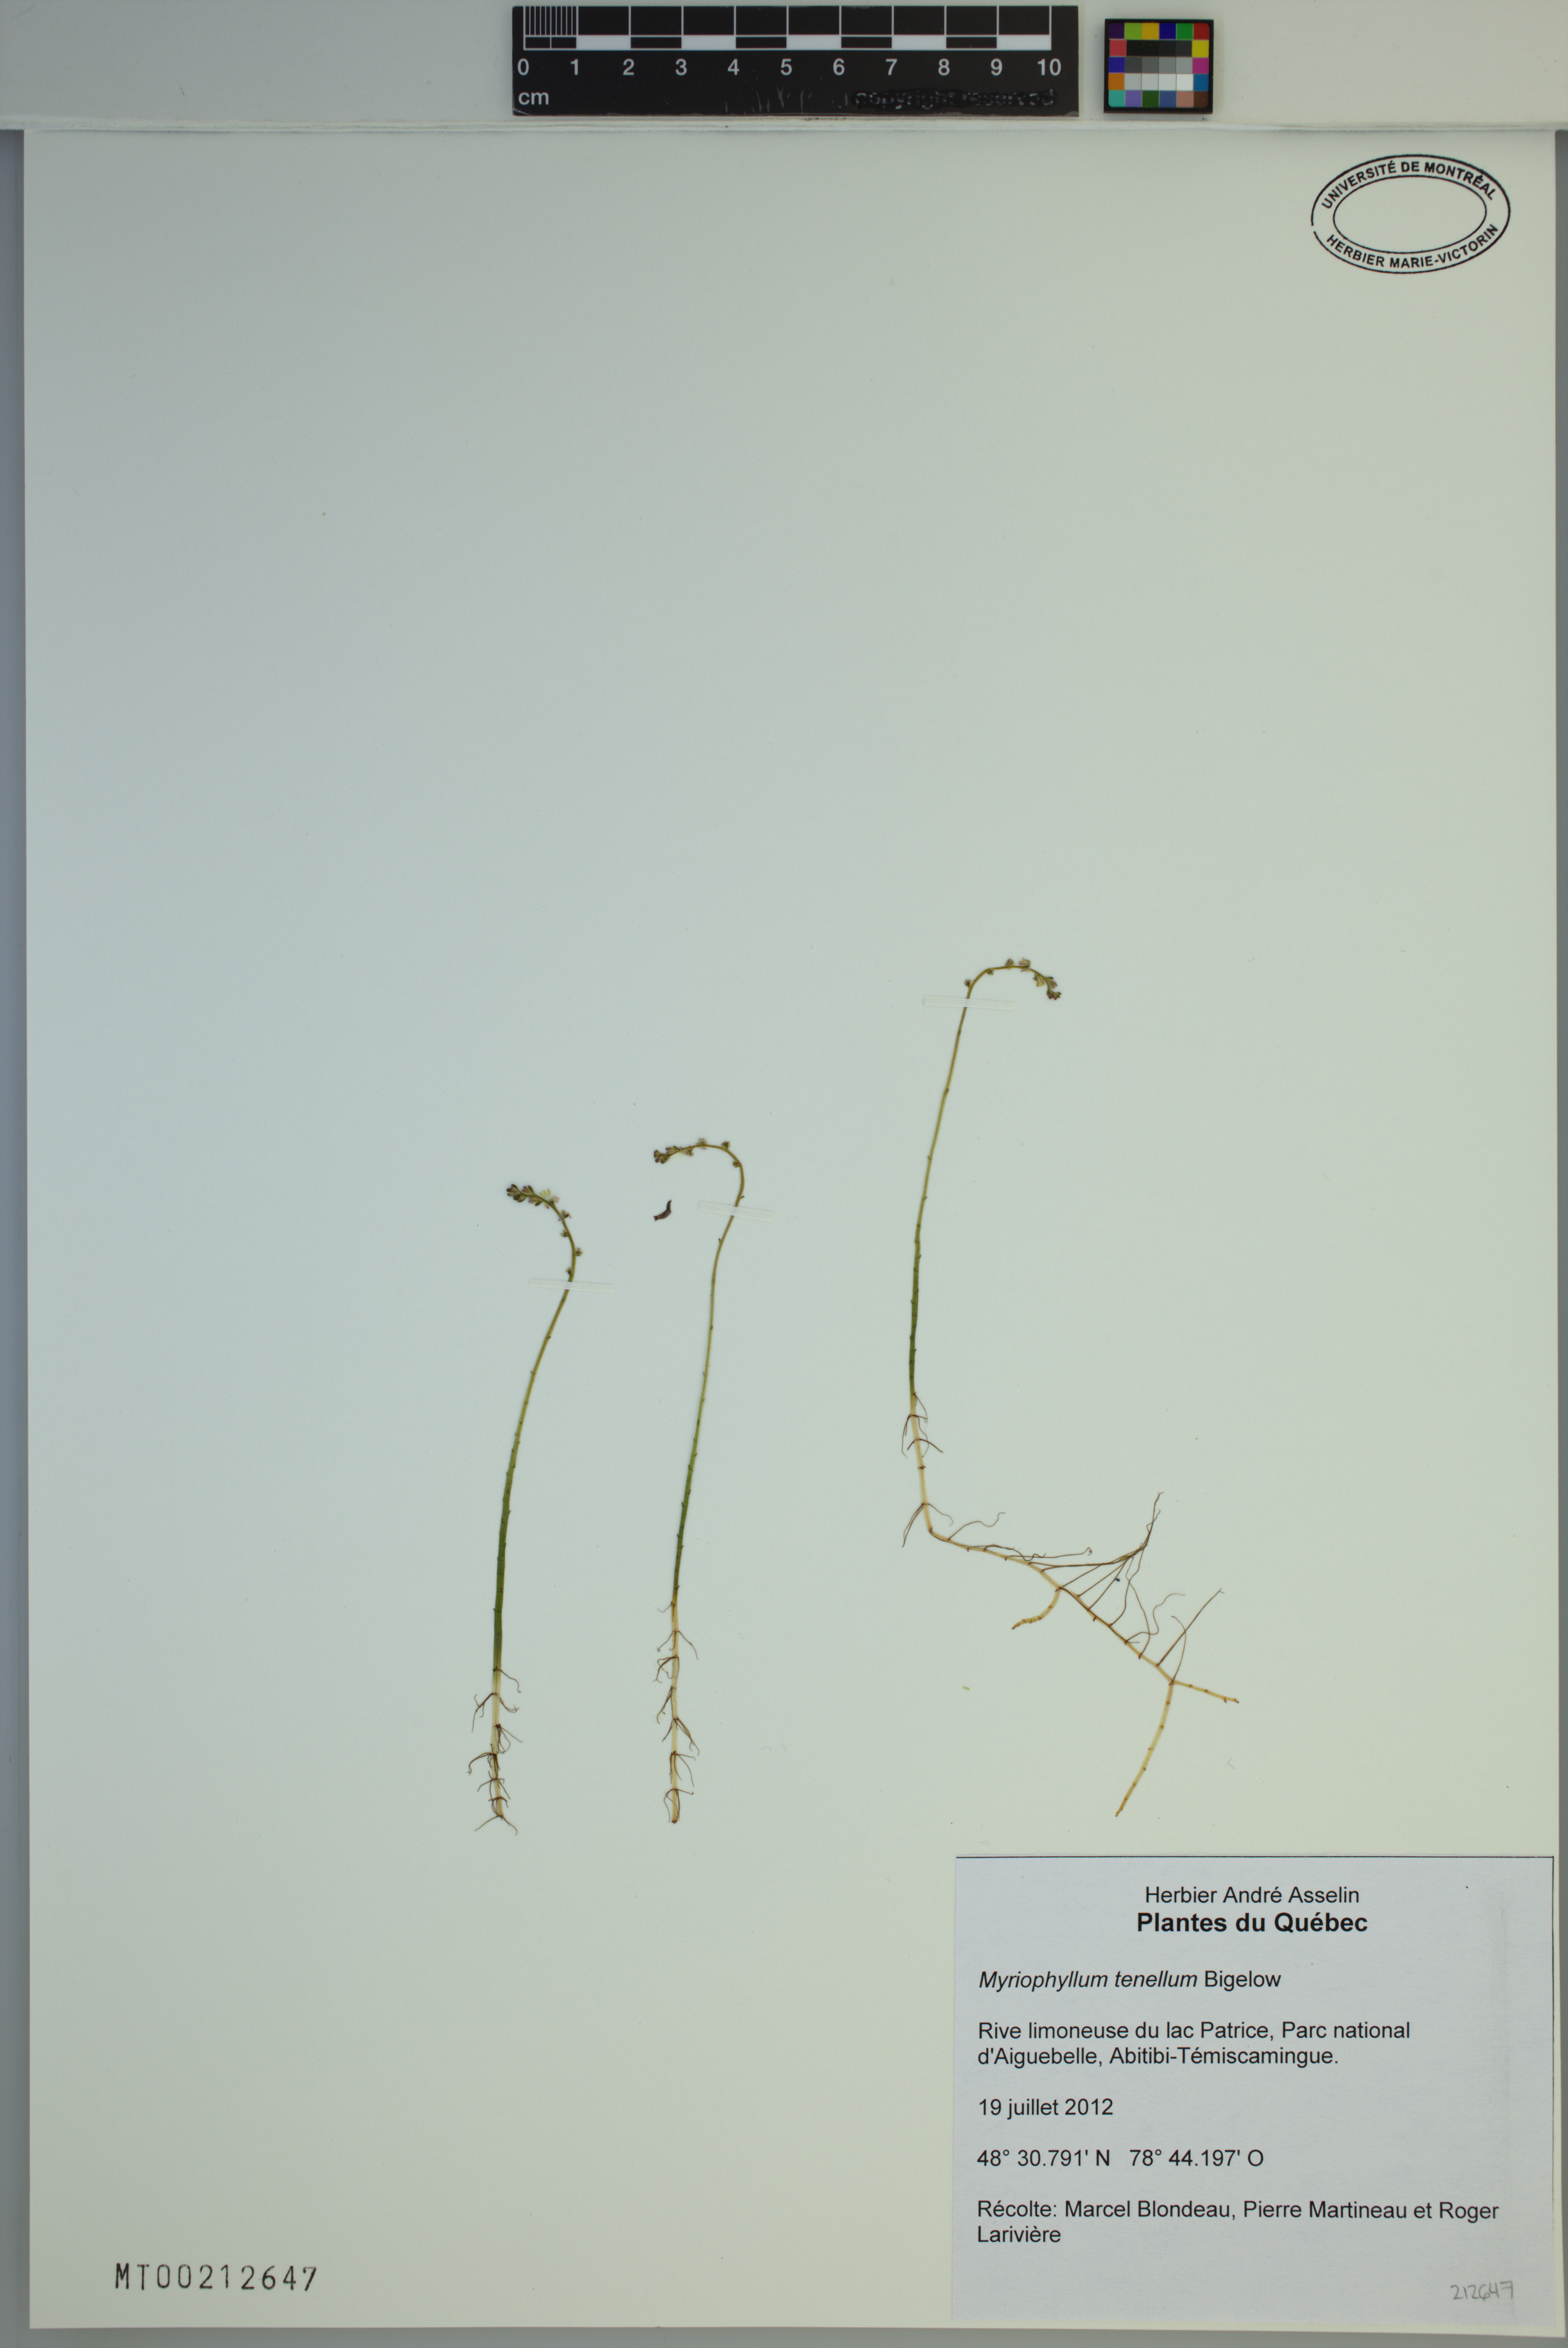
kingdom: Plantae
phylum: Tracheophyta
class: Magnoliopsida
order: Saxifragales
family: Haloragaceae
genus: Myriophyllum
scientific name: Myriophyllum tenellum
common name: Slender water-milfoil
